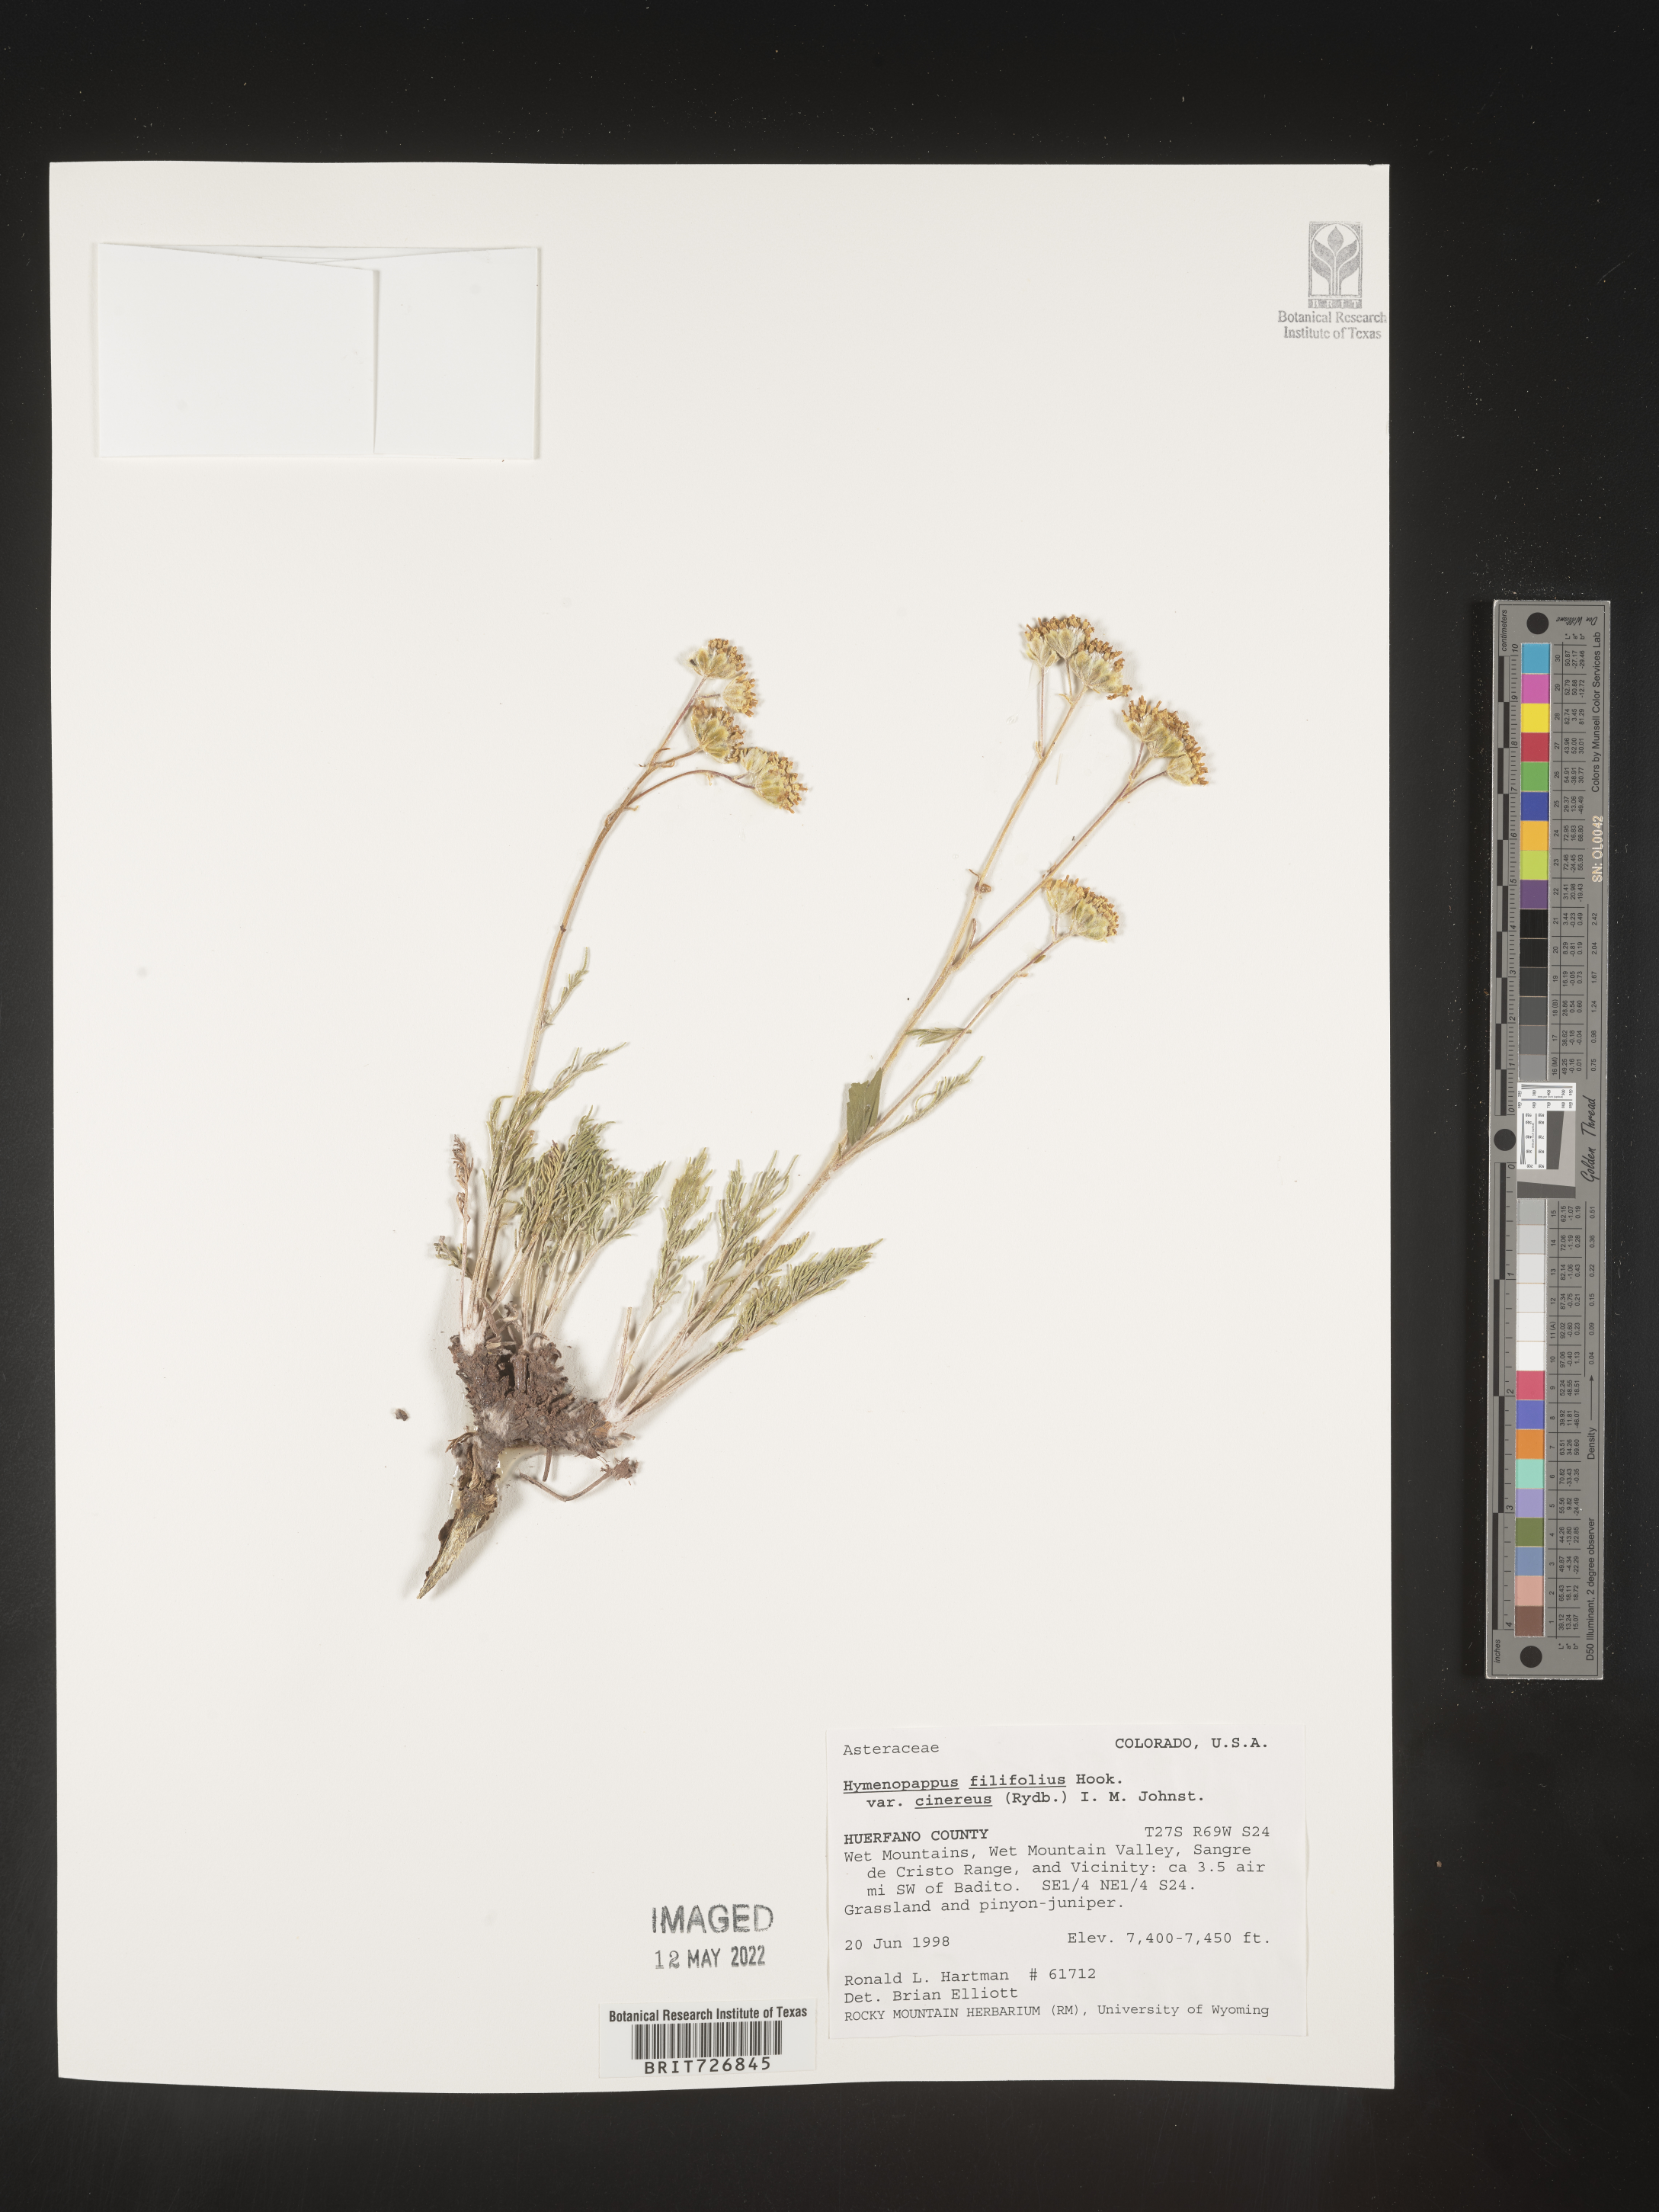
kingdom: Plantae
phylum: Tracheophyta
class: Magnoliopsida
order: Asterales
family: Asteraceae
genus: Hymenopappus
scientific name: Hymenopappus filifolius
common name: Columbia cutleaf
